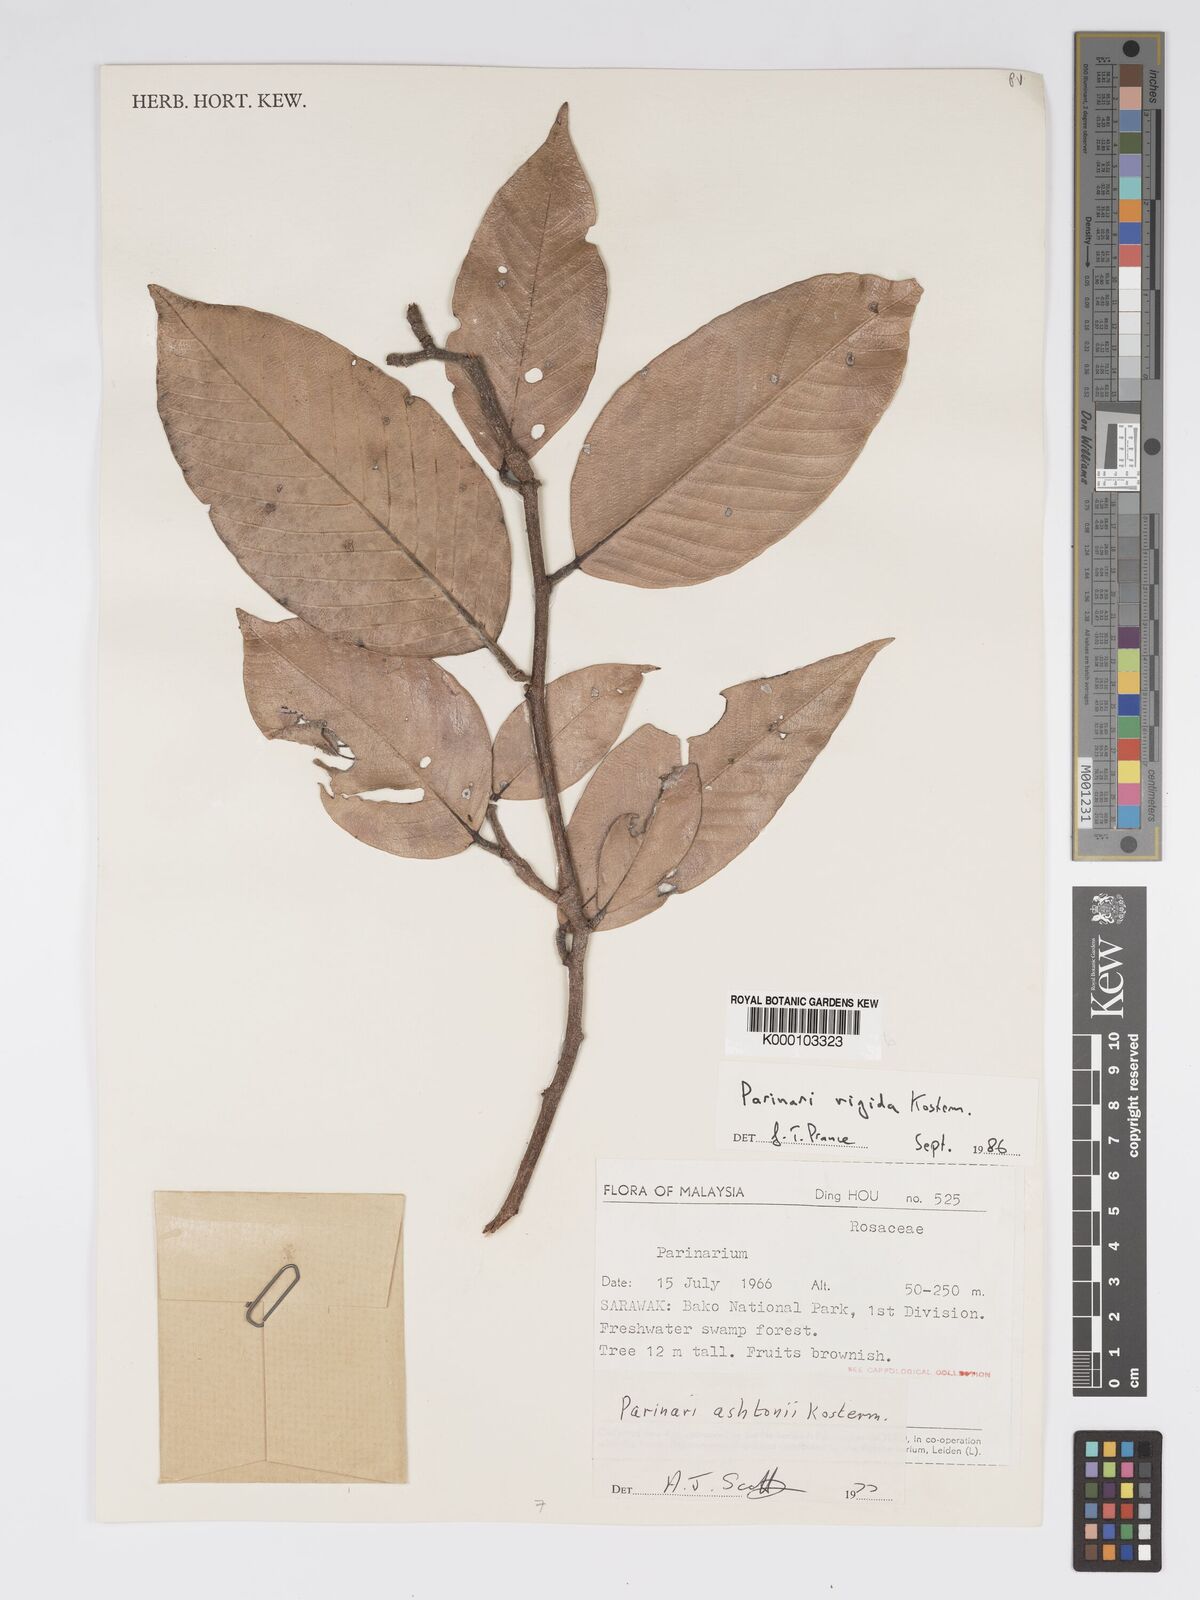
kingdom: Plantae
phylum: Tracheophyta
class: Magnoliopsida
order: Malpighiales
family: Chrysobalanaceae
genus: Parinari
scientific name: Parinari rigida
